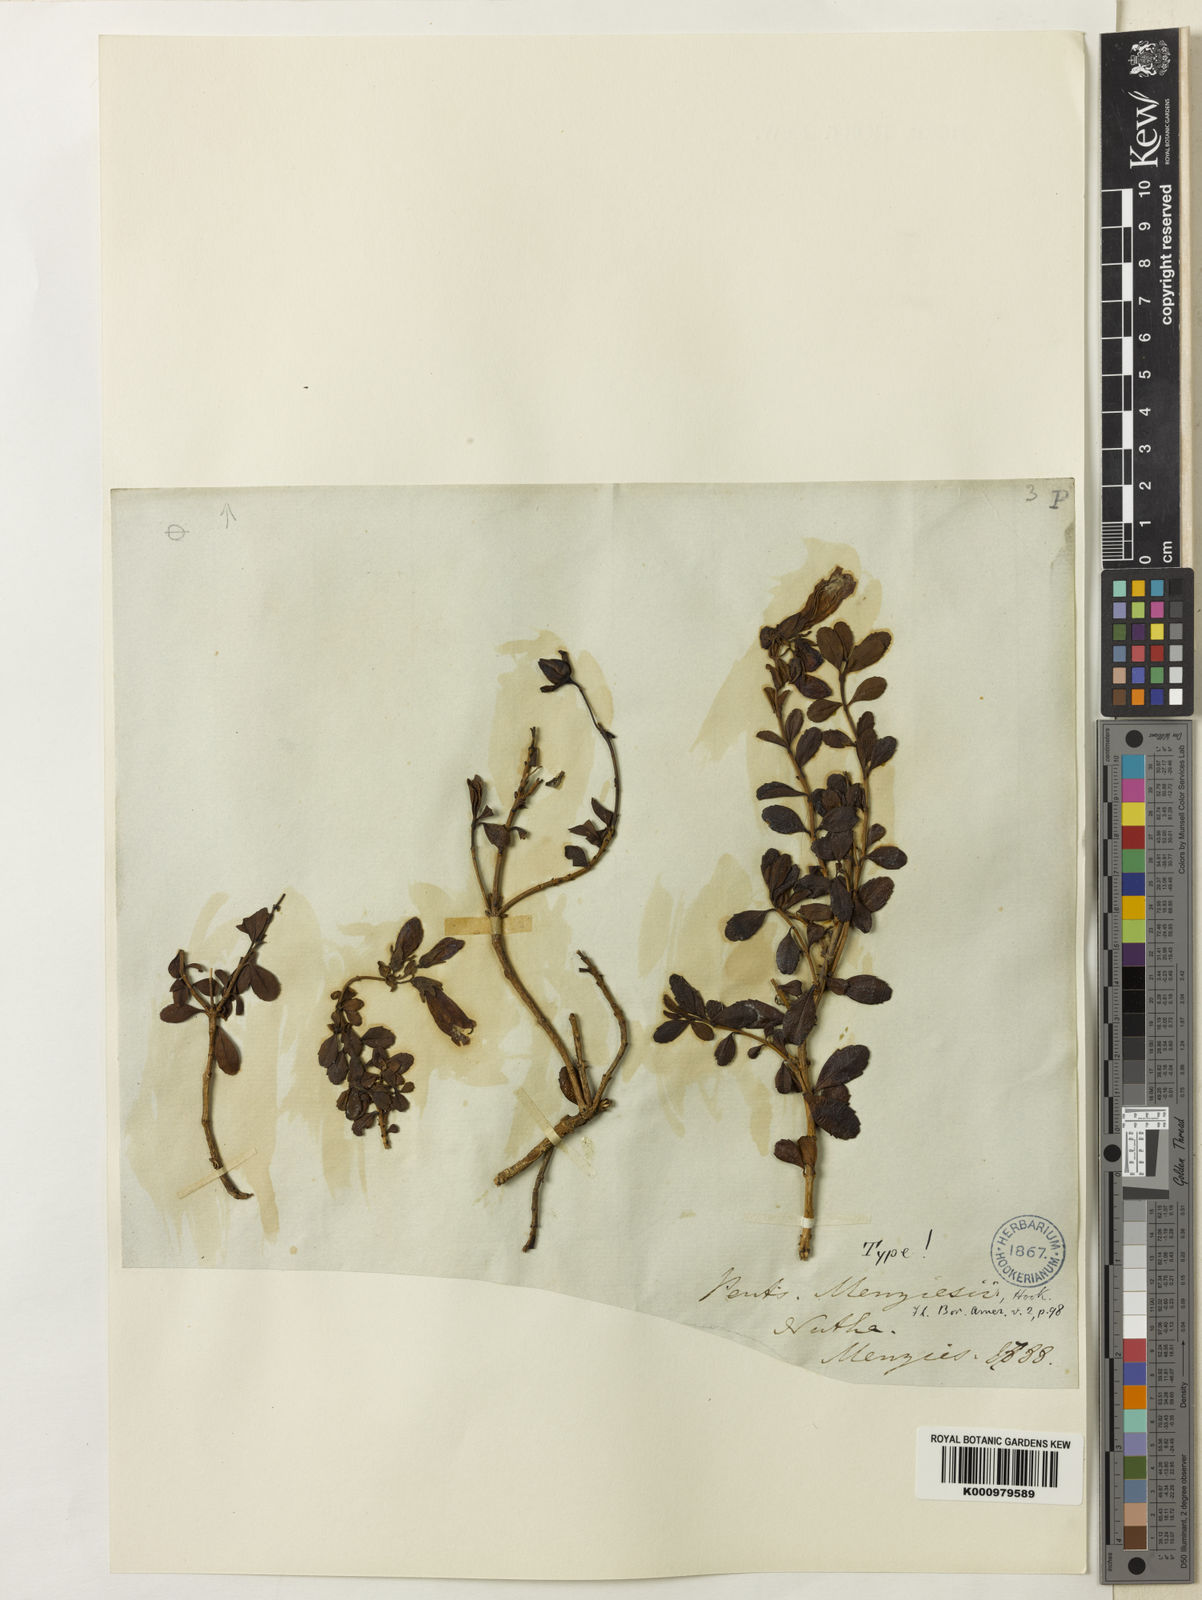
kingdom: Plantae
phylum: Tracheophyta
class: Magnoliopsida
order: Lamiales
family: Plantaginaceae
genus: Penstemon
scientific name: Penstemon
